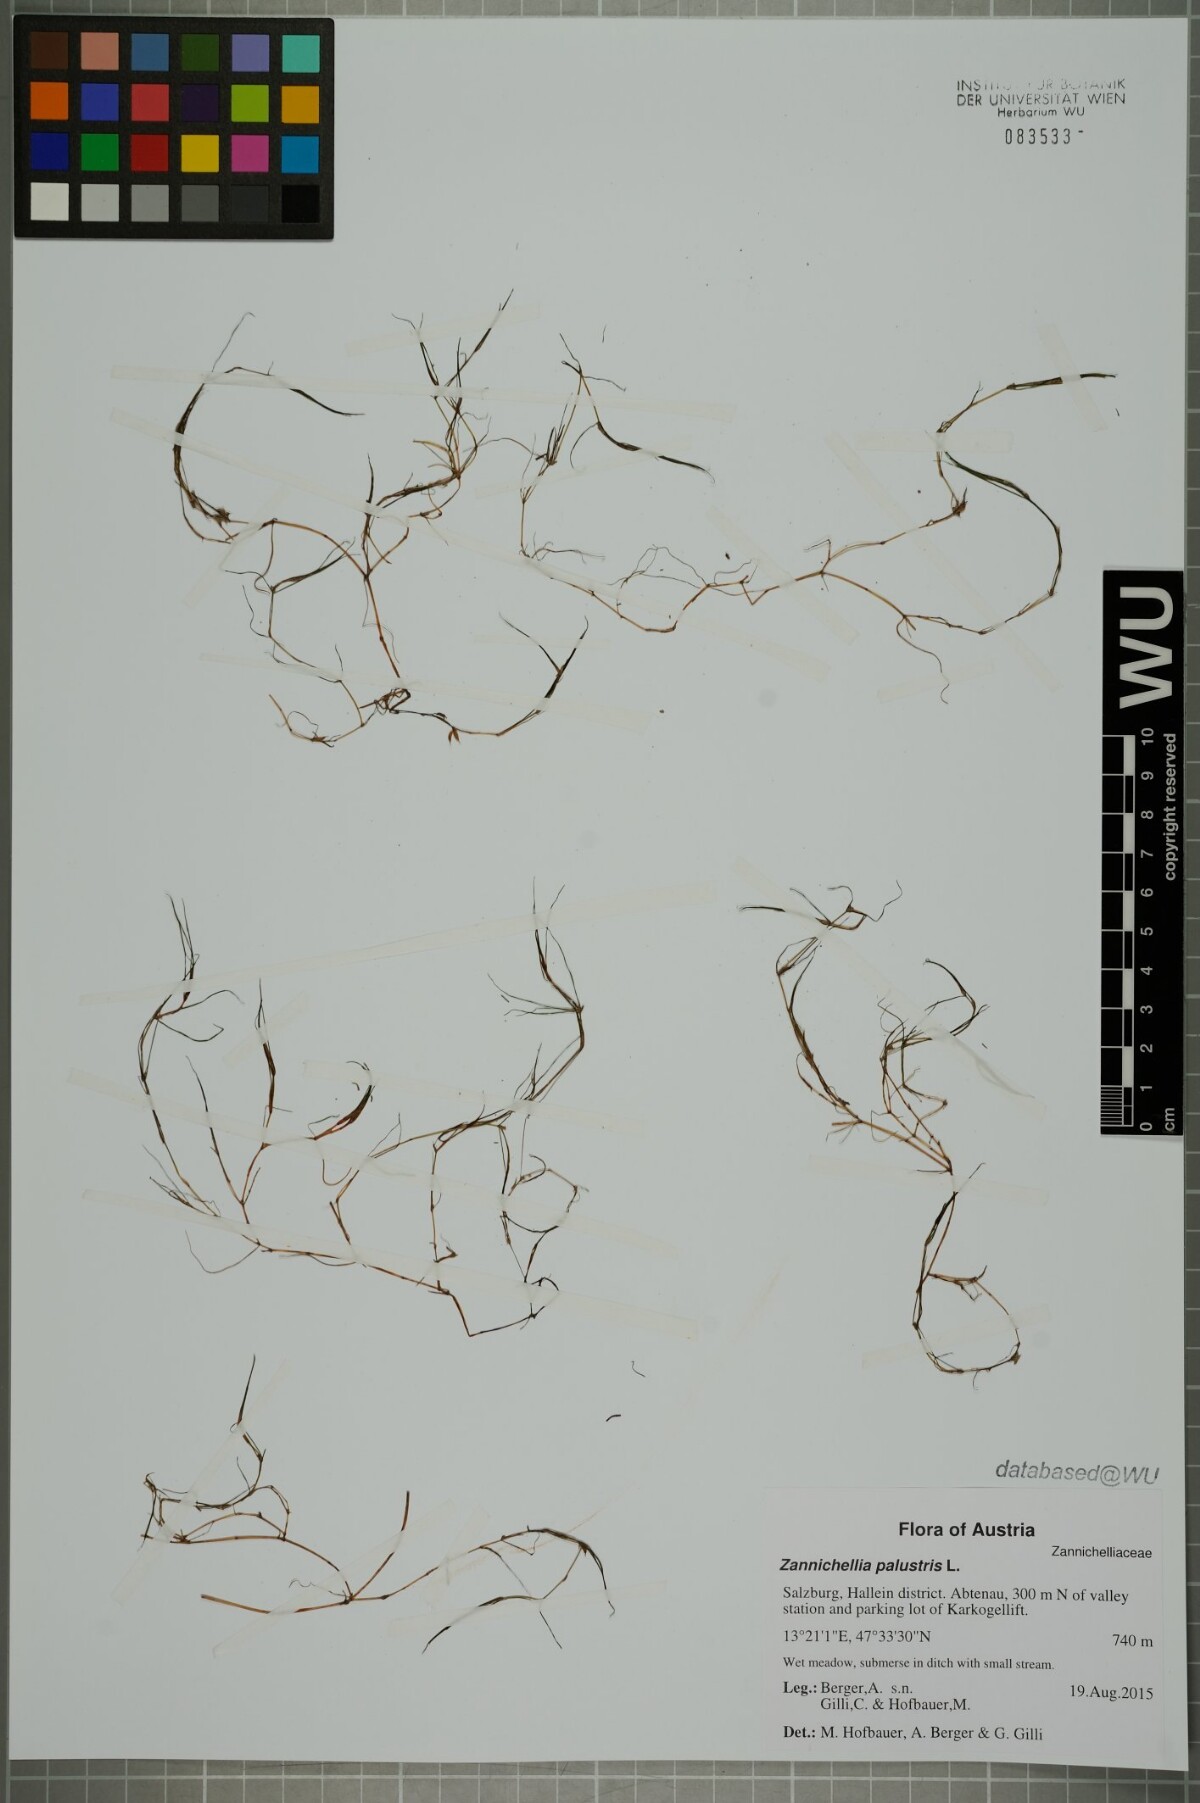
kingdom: Plantae
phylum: Tracheophyta
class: Liliopsida
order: Alismatales
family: Potamogetonaceae
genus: Zannichellia
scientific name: Zannichellia palustris
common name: Horned pondweed
